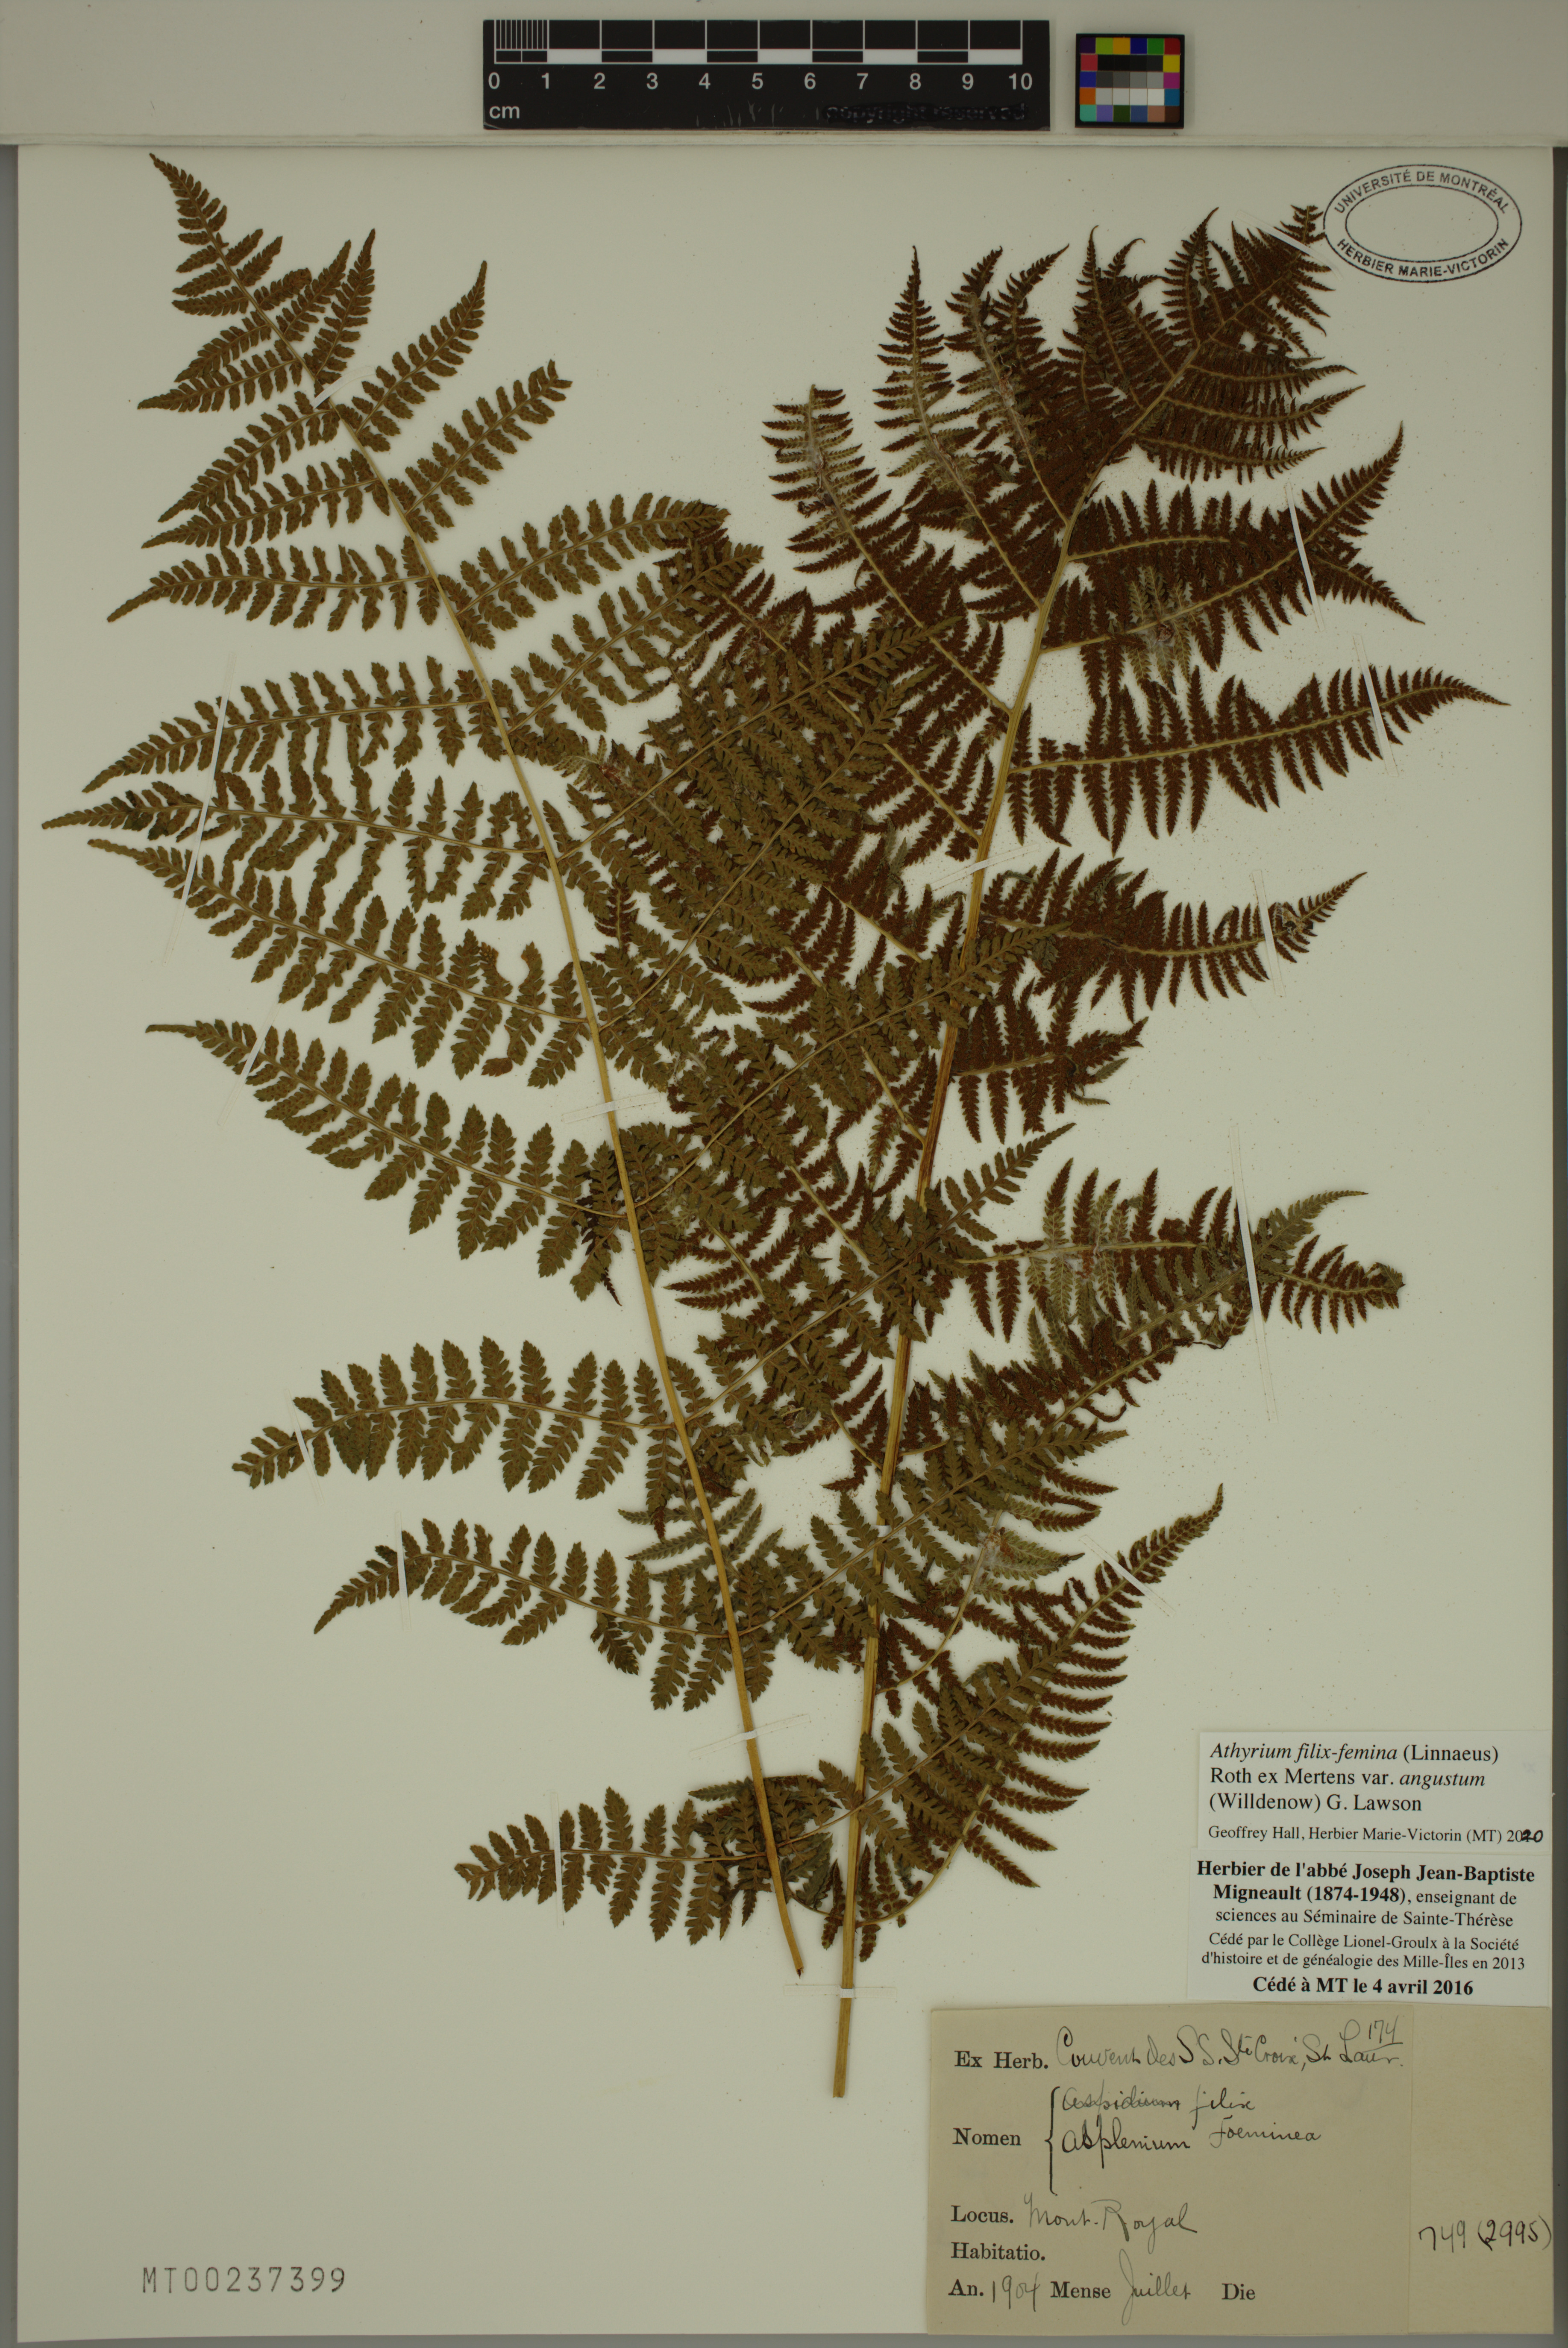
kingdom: Plantae
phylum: Tracheophyta
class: Polypodiopsida
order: Polypodiales
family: Athyriaceae
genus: Athyrium
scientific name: Athyrium angustum
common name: Northern lady fern
